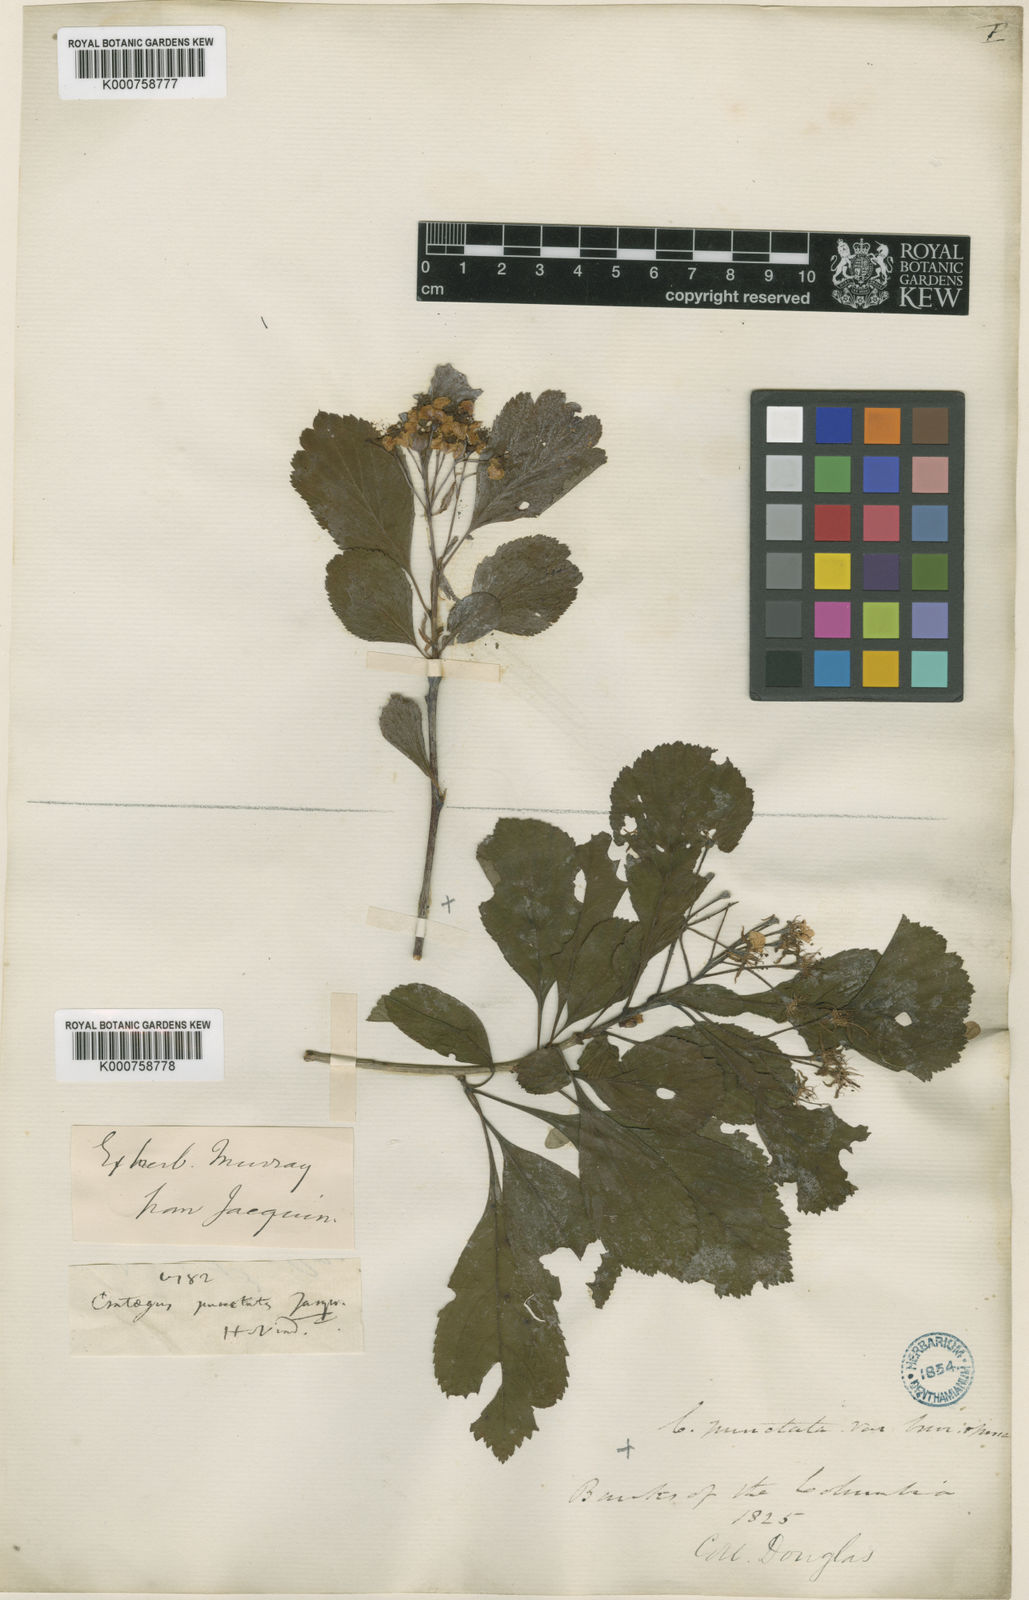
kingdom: Plantae
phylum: Tracheophyta
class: Magnoliopsida
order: Rosales
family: Rosaceae
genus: Crataegus
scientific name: Crataegus punctata
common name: Dotted hawthorn
